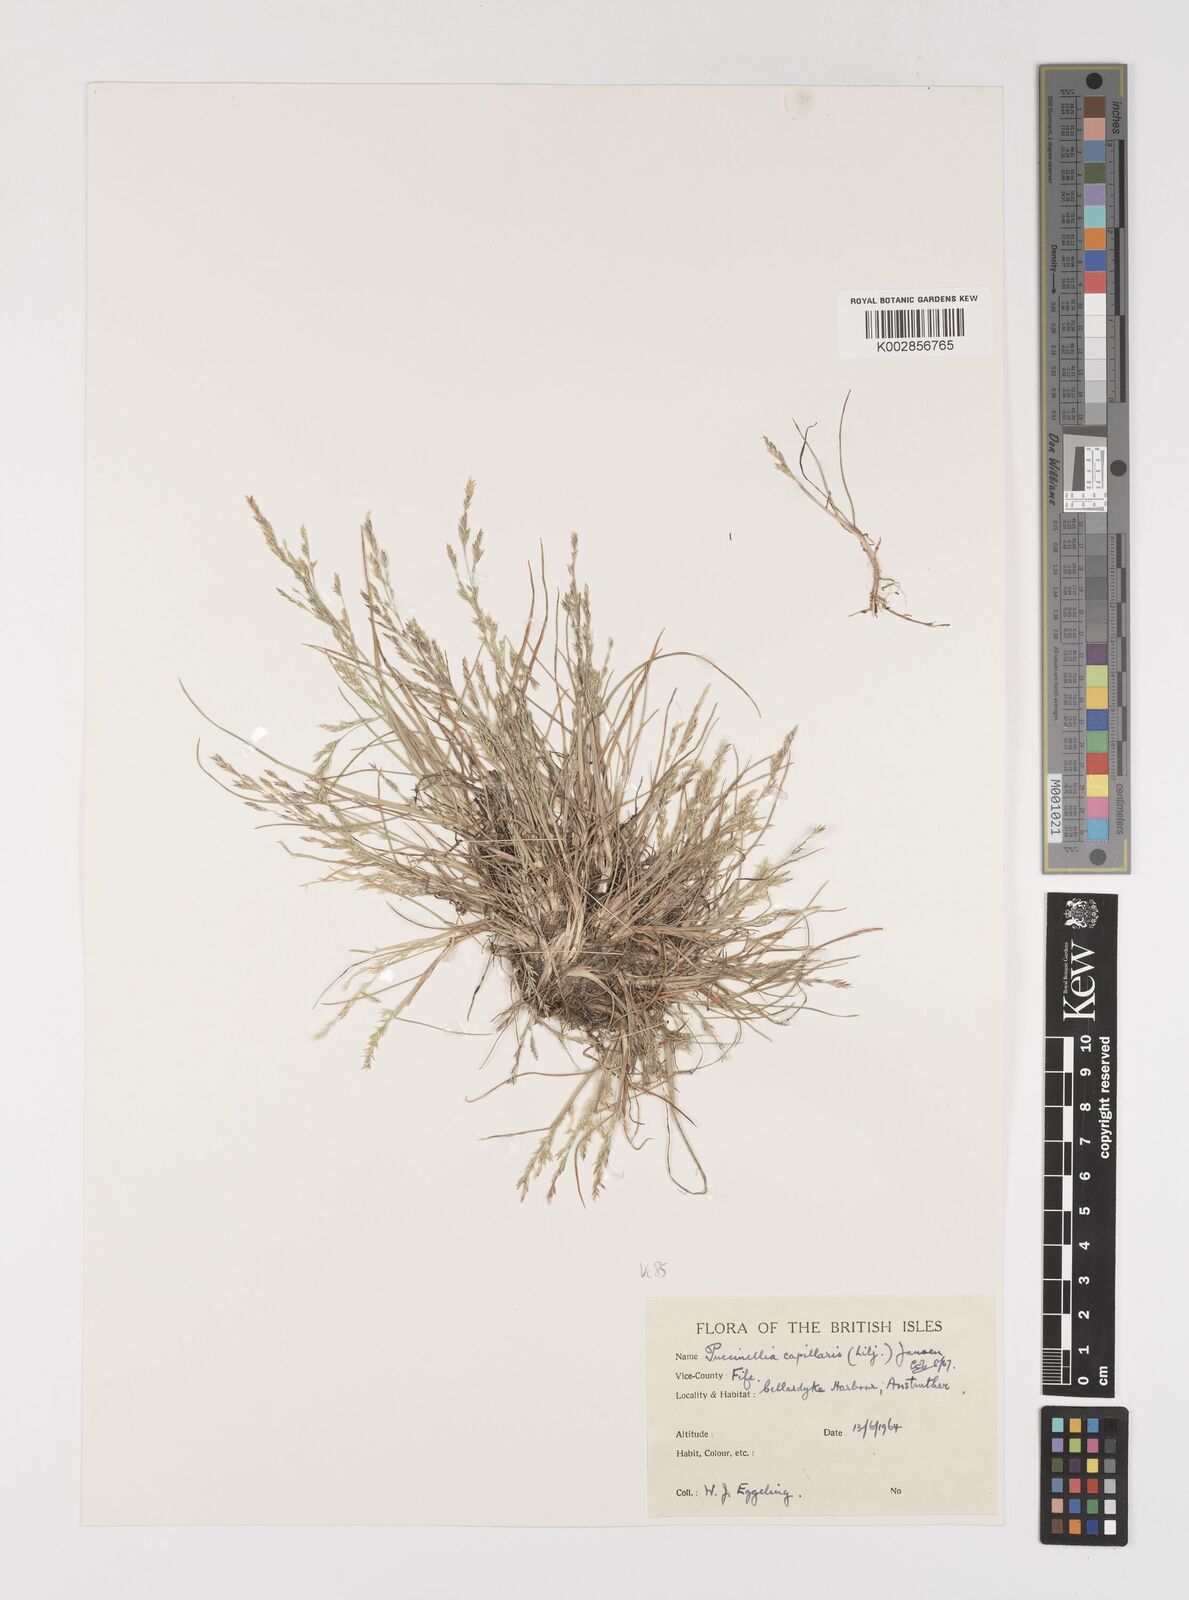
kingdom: Plantae
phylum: Tracheophyta
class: Liliopsida
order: Poales
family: Poaceae
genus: Puccinellia
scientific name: Puccinellia distans
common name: Weeping alkaligrass
